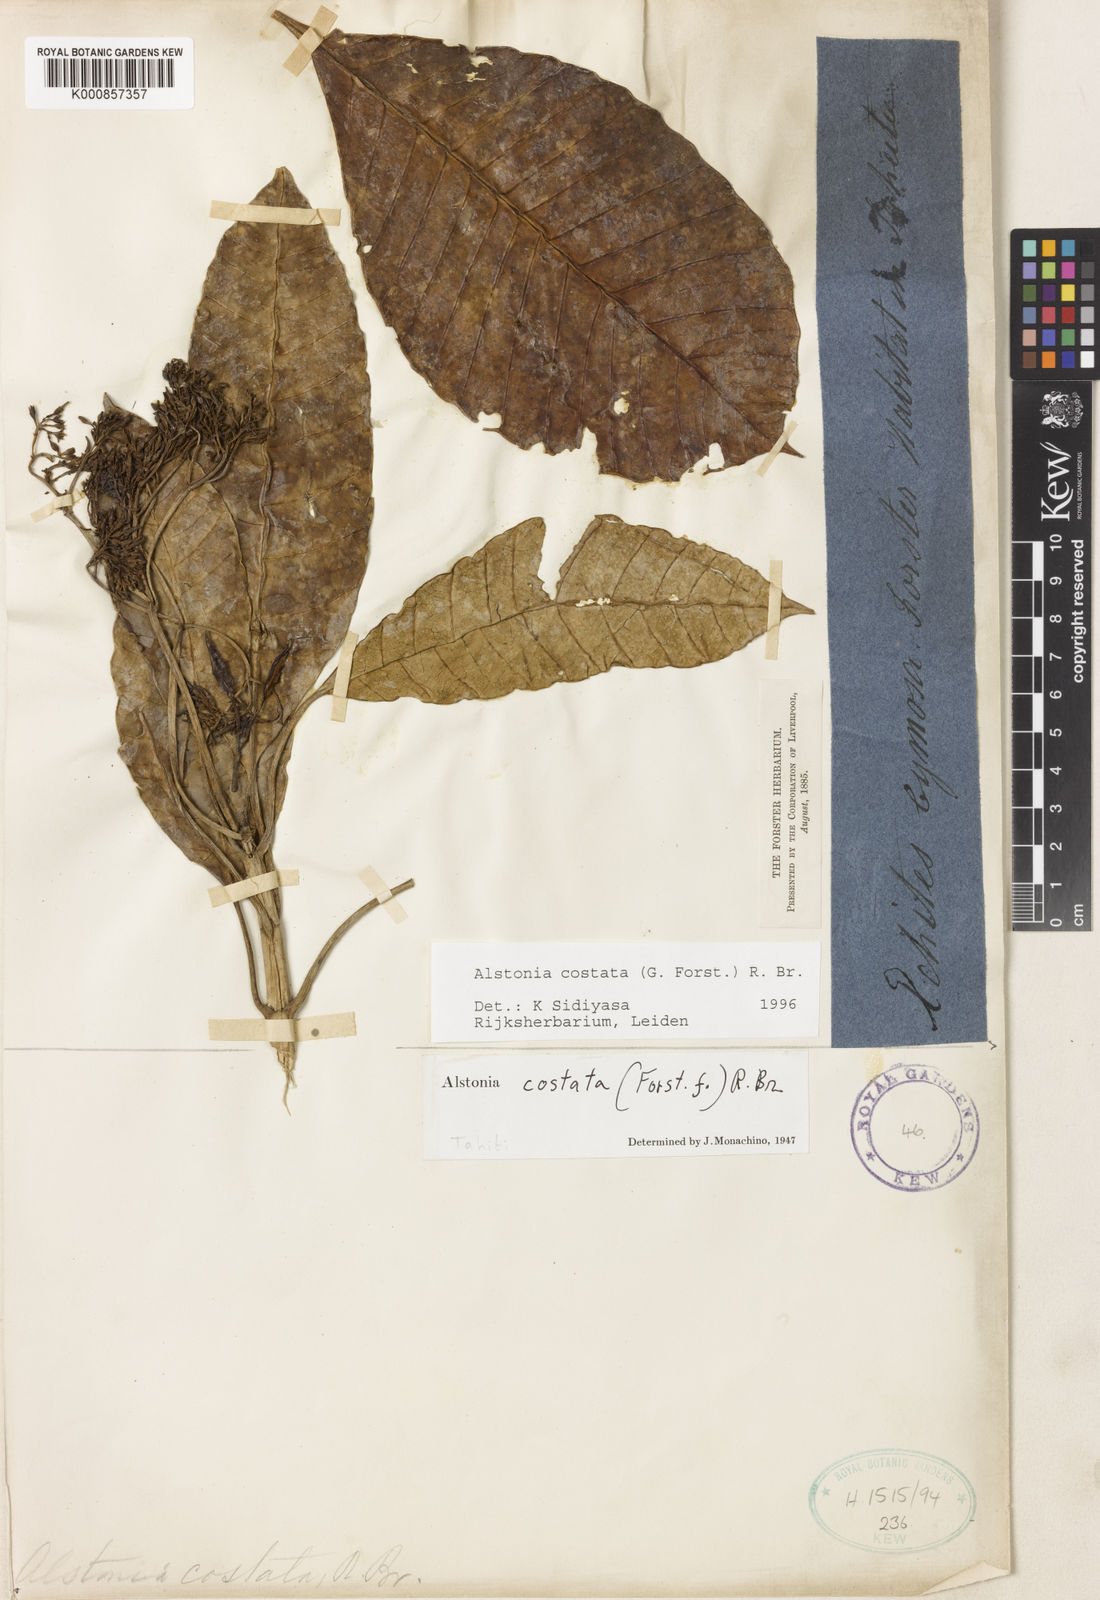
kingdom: Plantae
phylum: Tracheophyta
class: Magnoliopsida
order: Gentianales
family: Apocynaceae
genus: Alstonia
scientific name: Alstonia costata
